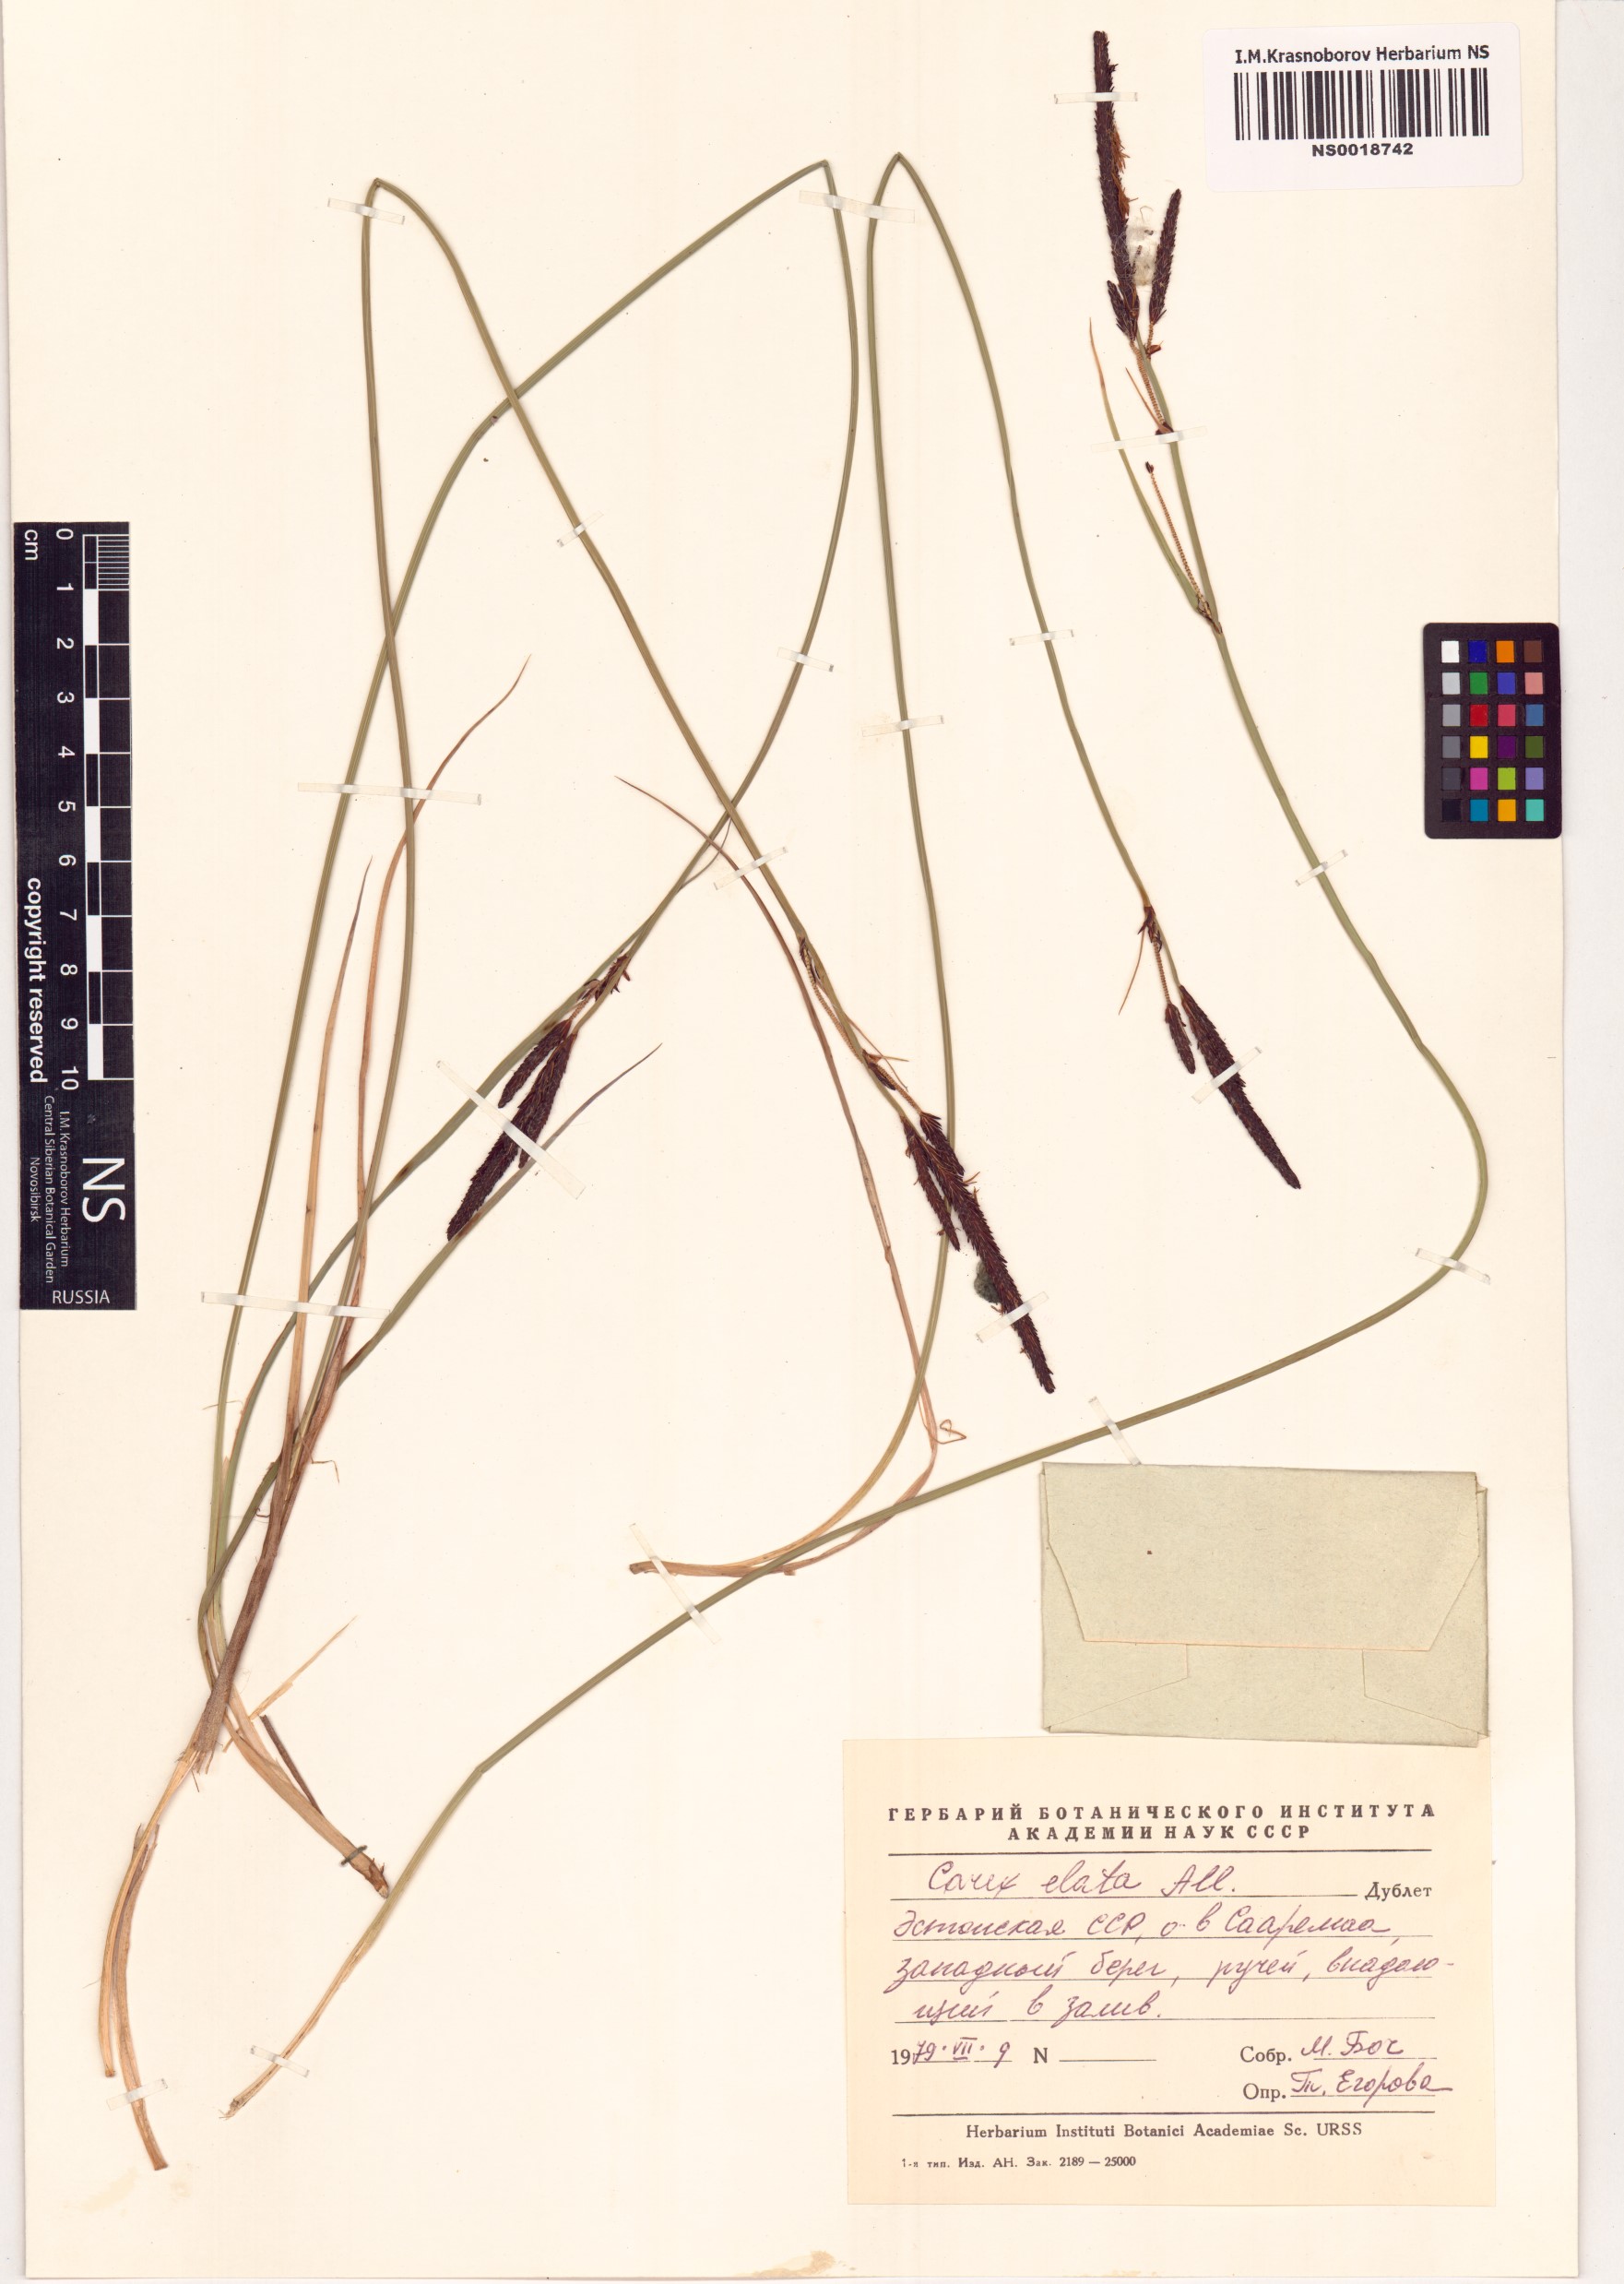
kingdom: Plantae
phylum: Tracheophyta
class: Liliopsida
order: Poales
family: Cyperaceae
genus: Carex
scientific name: Carex elata
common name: Tufted sedge
